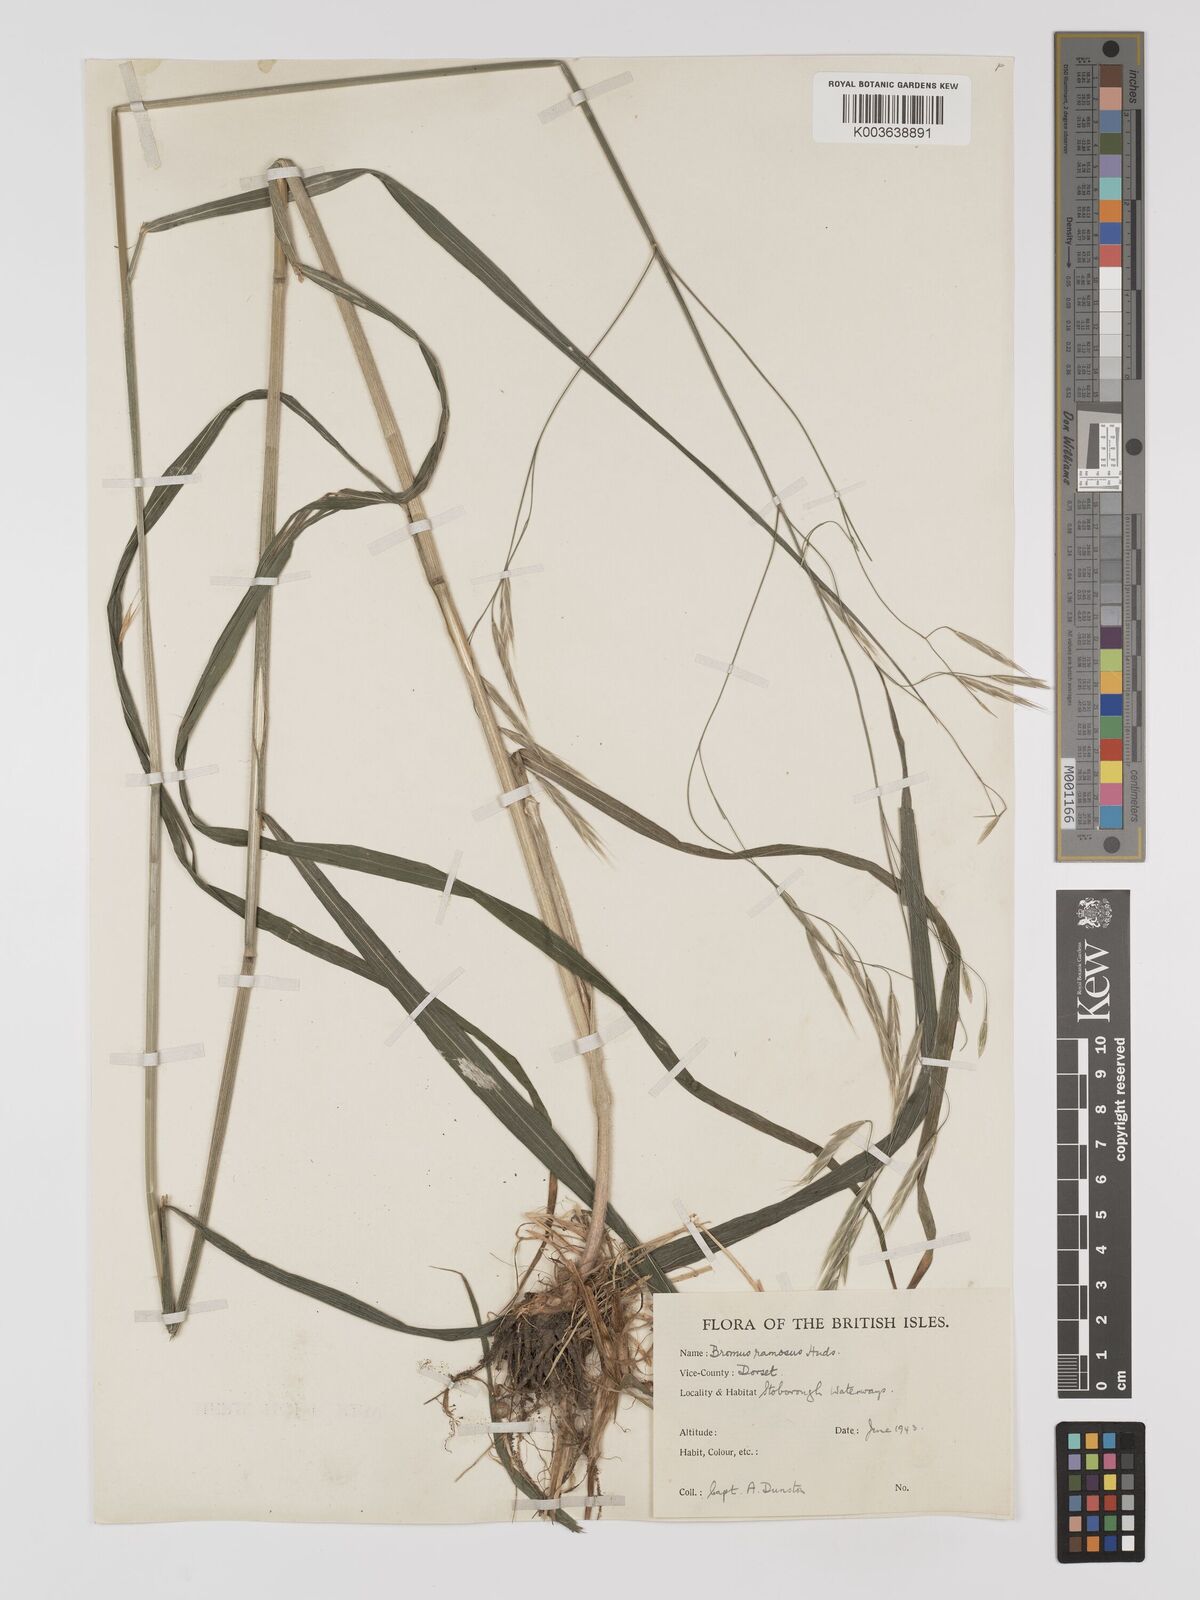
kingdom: Plantae
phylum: Tracheophyta
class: Liliopsida
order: Poales
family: Poaceae
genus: Brachypodium
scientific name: Brachypodium retusum
